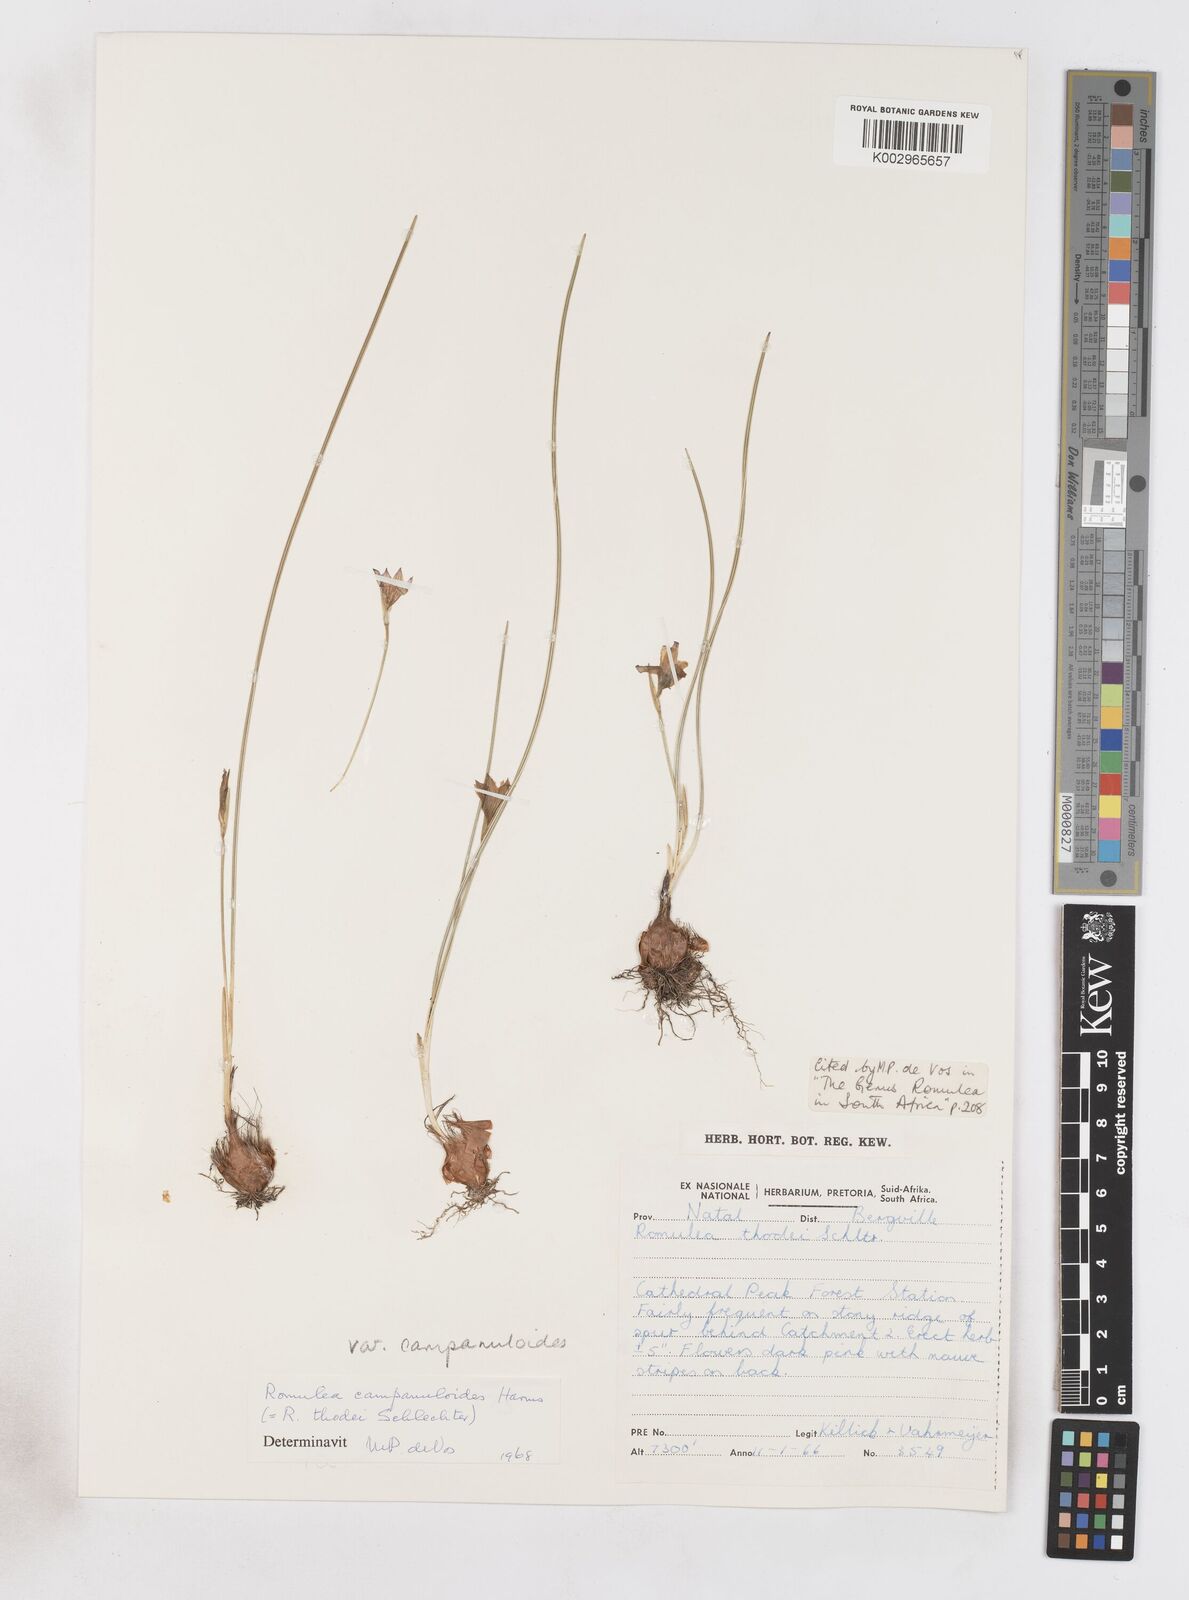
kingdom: Plantae
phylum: Tracheophyta
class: Liliopsida
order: Asparagales
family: Iridaceae
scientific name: Iridaceae
